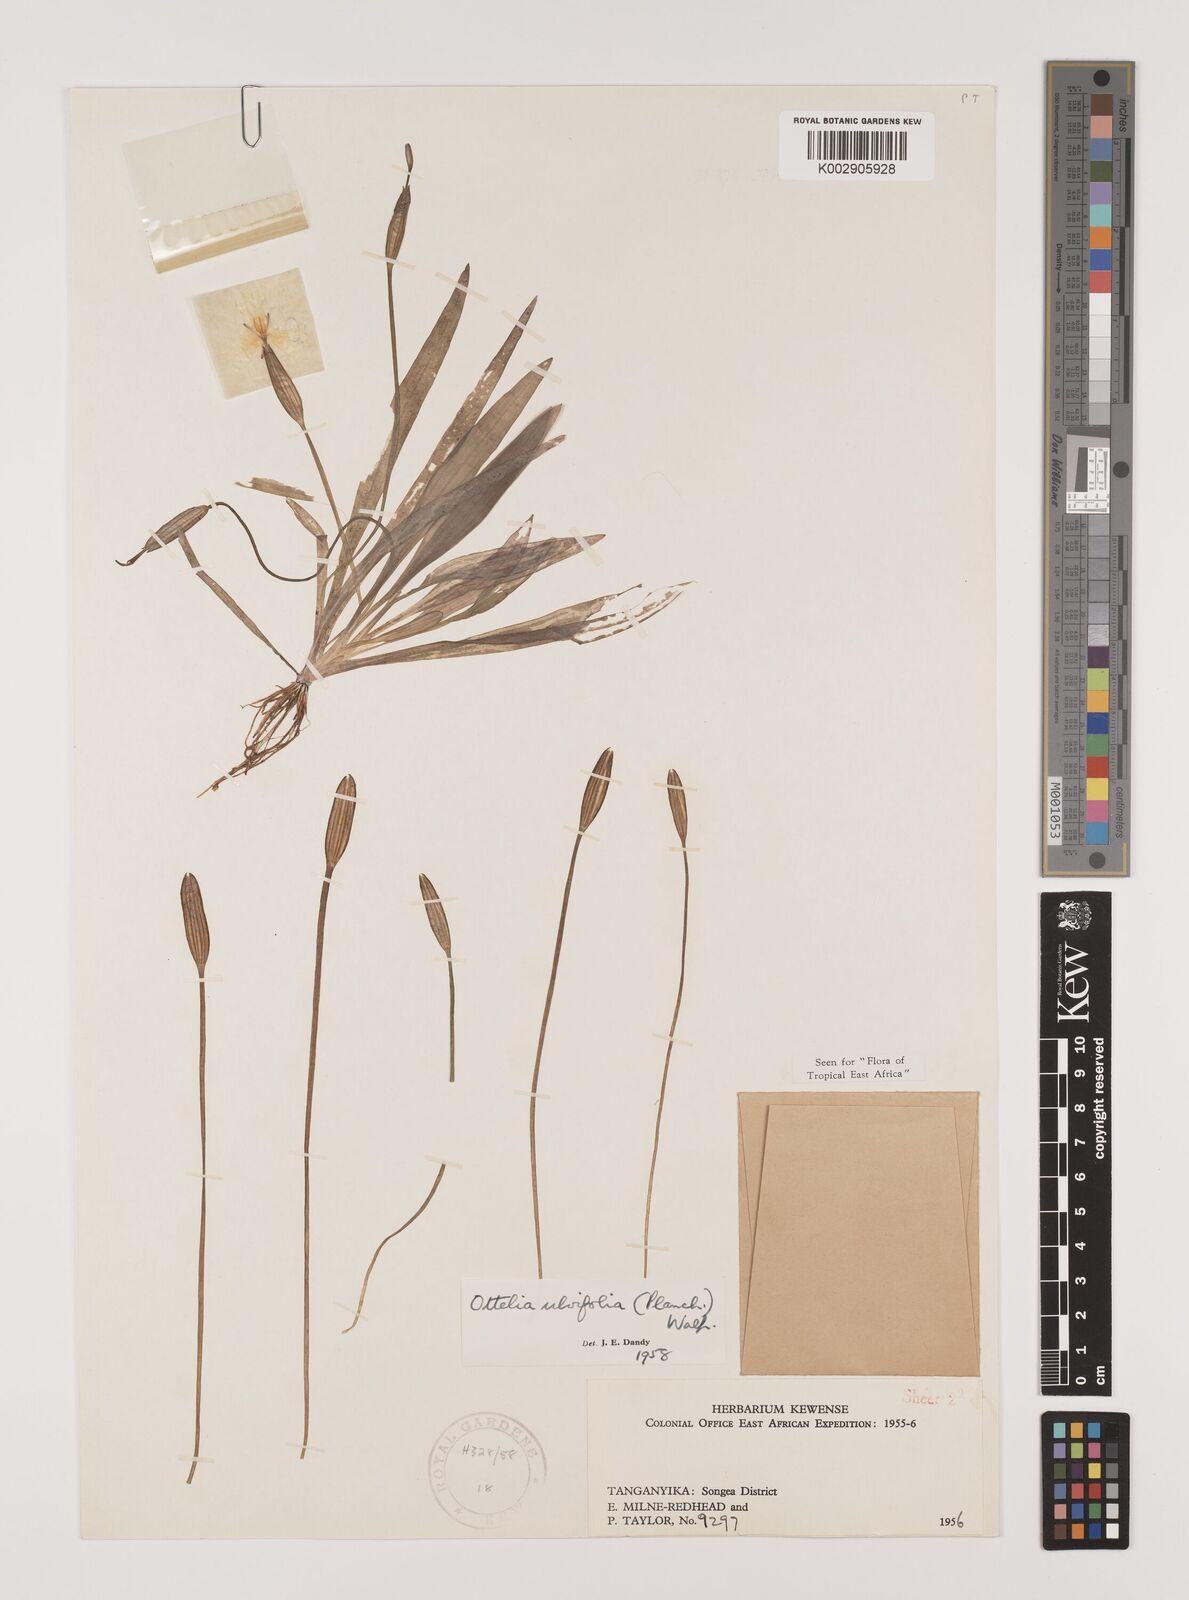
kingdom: Plantae
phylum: Tracheophyta
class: Liliopsida
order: Alismatales
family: Hydrocharitaceae
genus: Ottelia
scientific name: Ottelia ulvifolia
